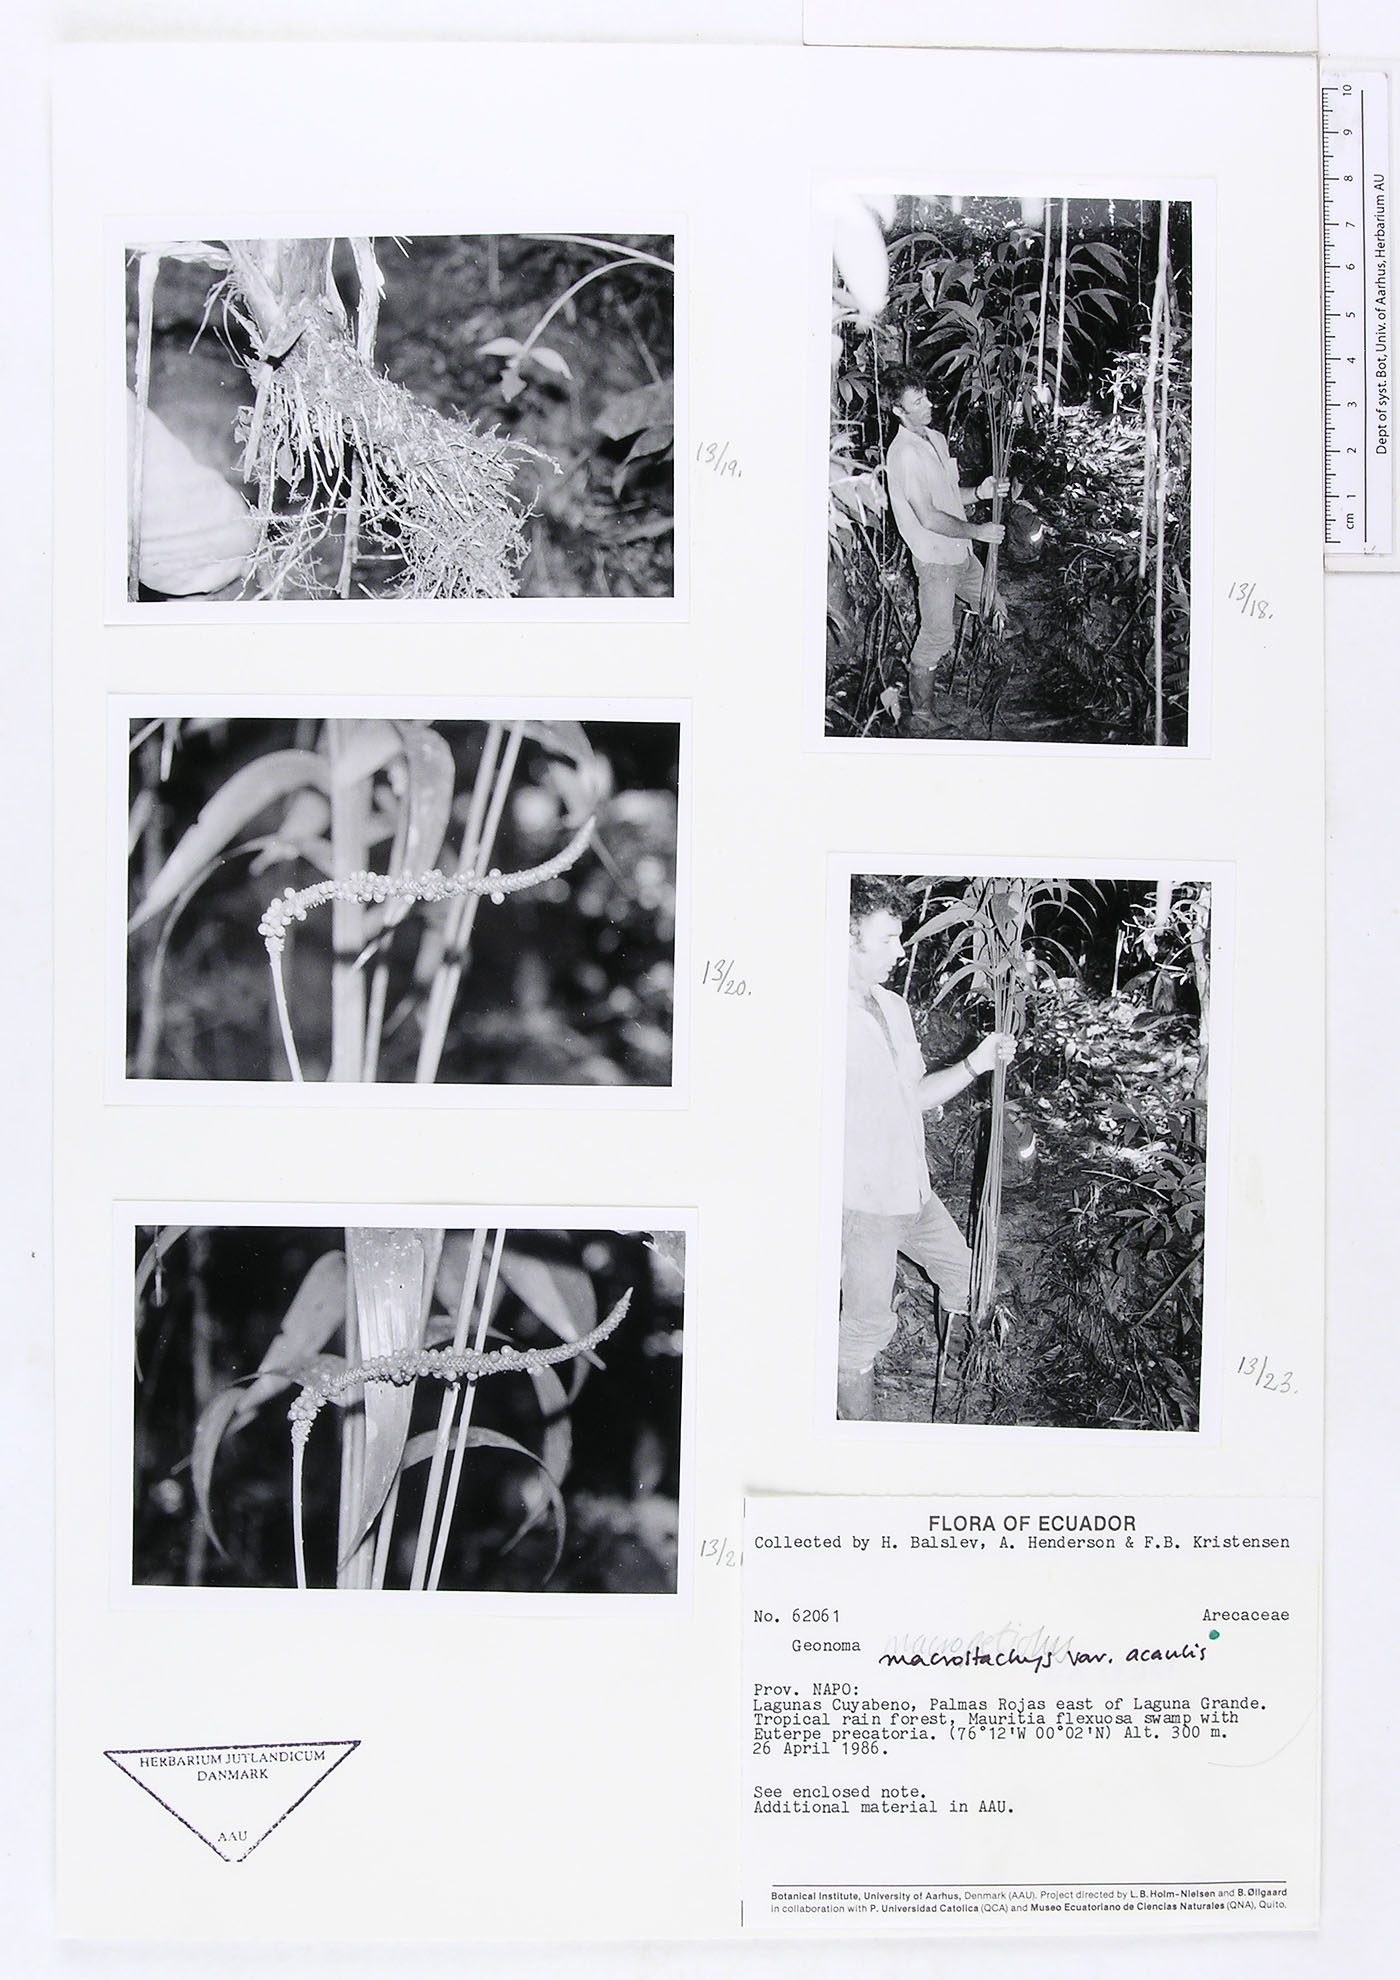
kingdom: Plantae
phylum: Tracheophyta
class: Liliopsida
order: Arecales
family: Arecaceae
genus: Geonoma
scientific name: Geonoma macrostachys
